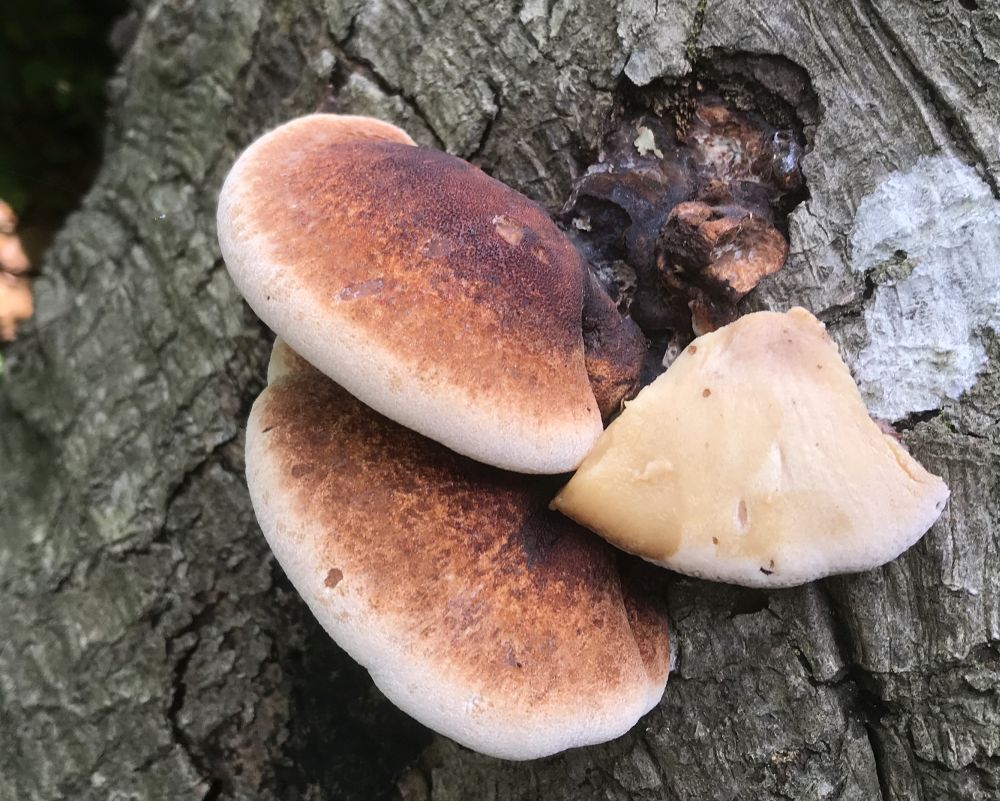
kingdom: Fungi
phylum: Basidiomycota
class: Agaricomycetes
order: Polyporales
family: Ischnodermataceae
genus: Ischnoderma
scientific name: Ischnoderma resinosum
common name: løv-tjæreporesvamp
